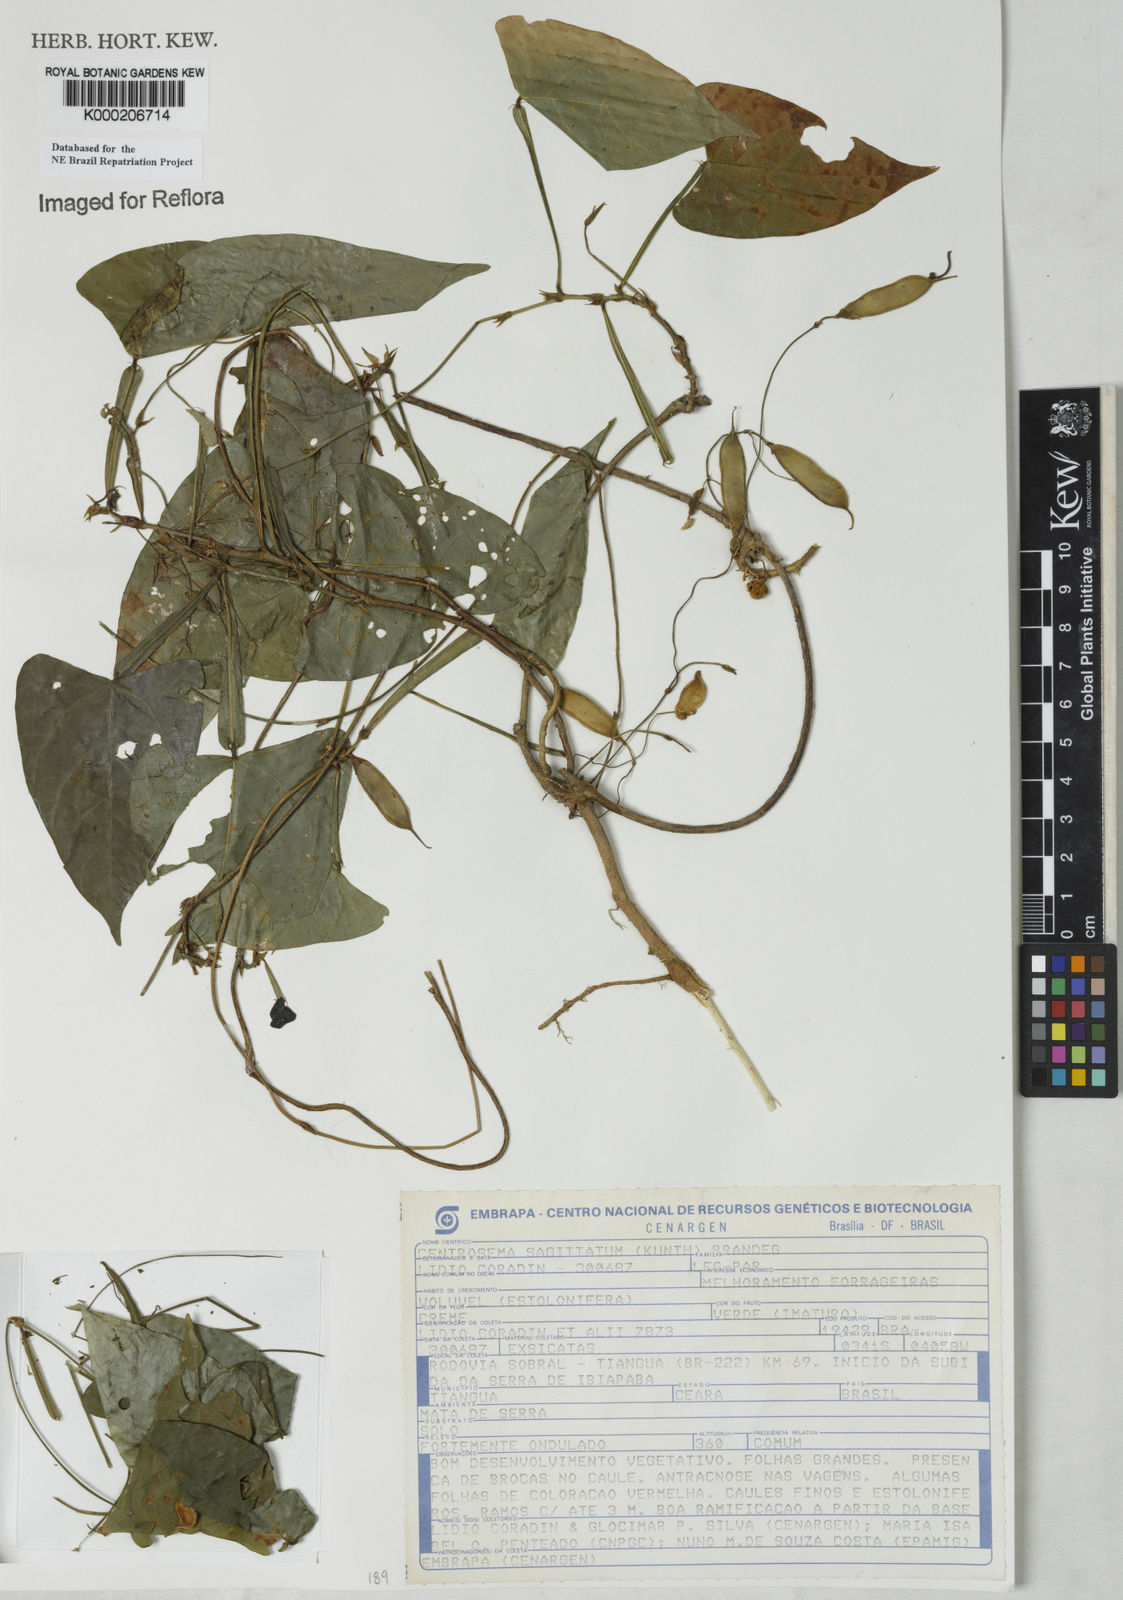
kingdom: Plantae
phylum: Tracheophyta
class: Magnoliopsida
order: Fabales
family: Fabaceae
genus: Centrosema
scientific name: Centrosema sagittatum
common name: Arrowleaf butterfly pea
